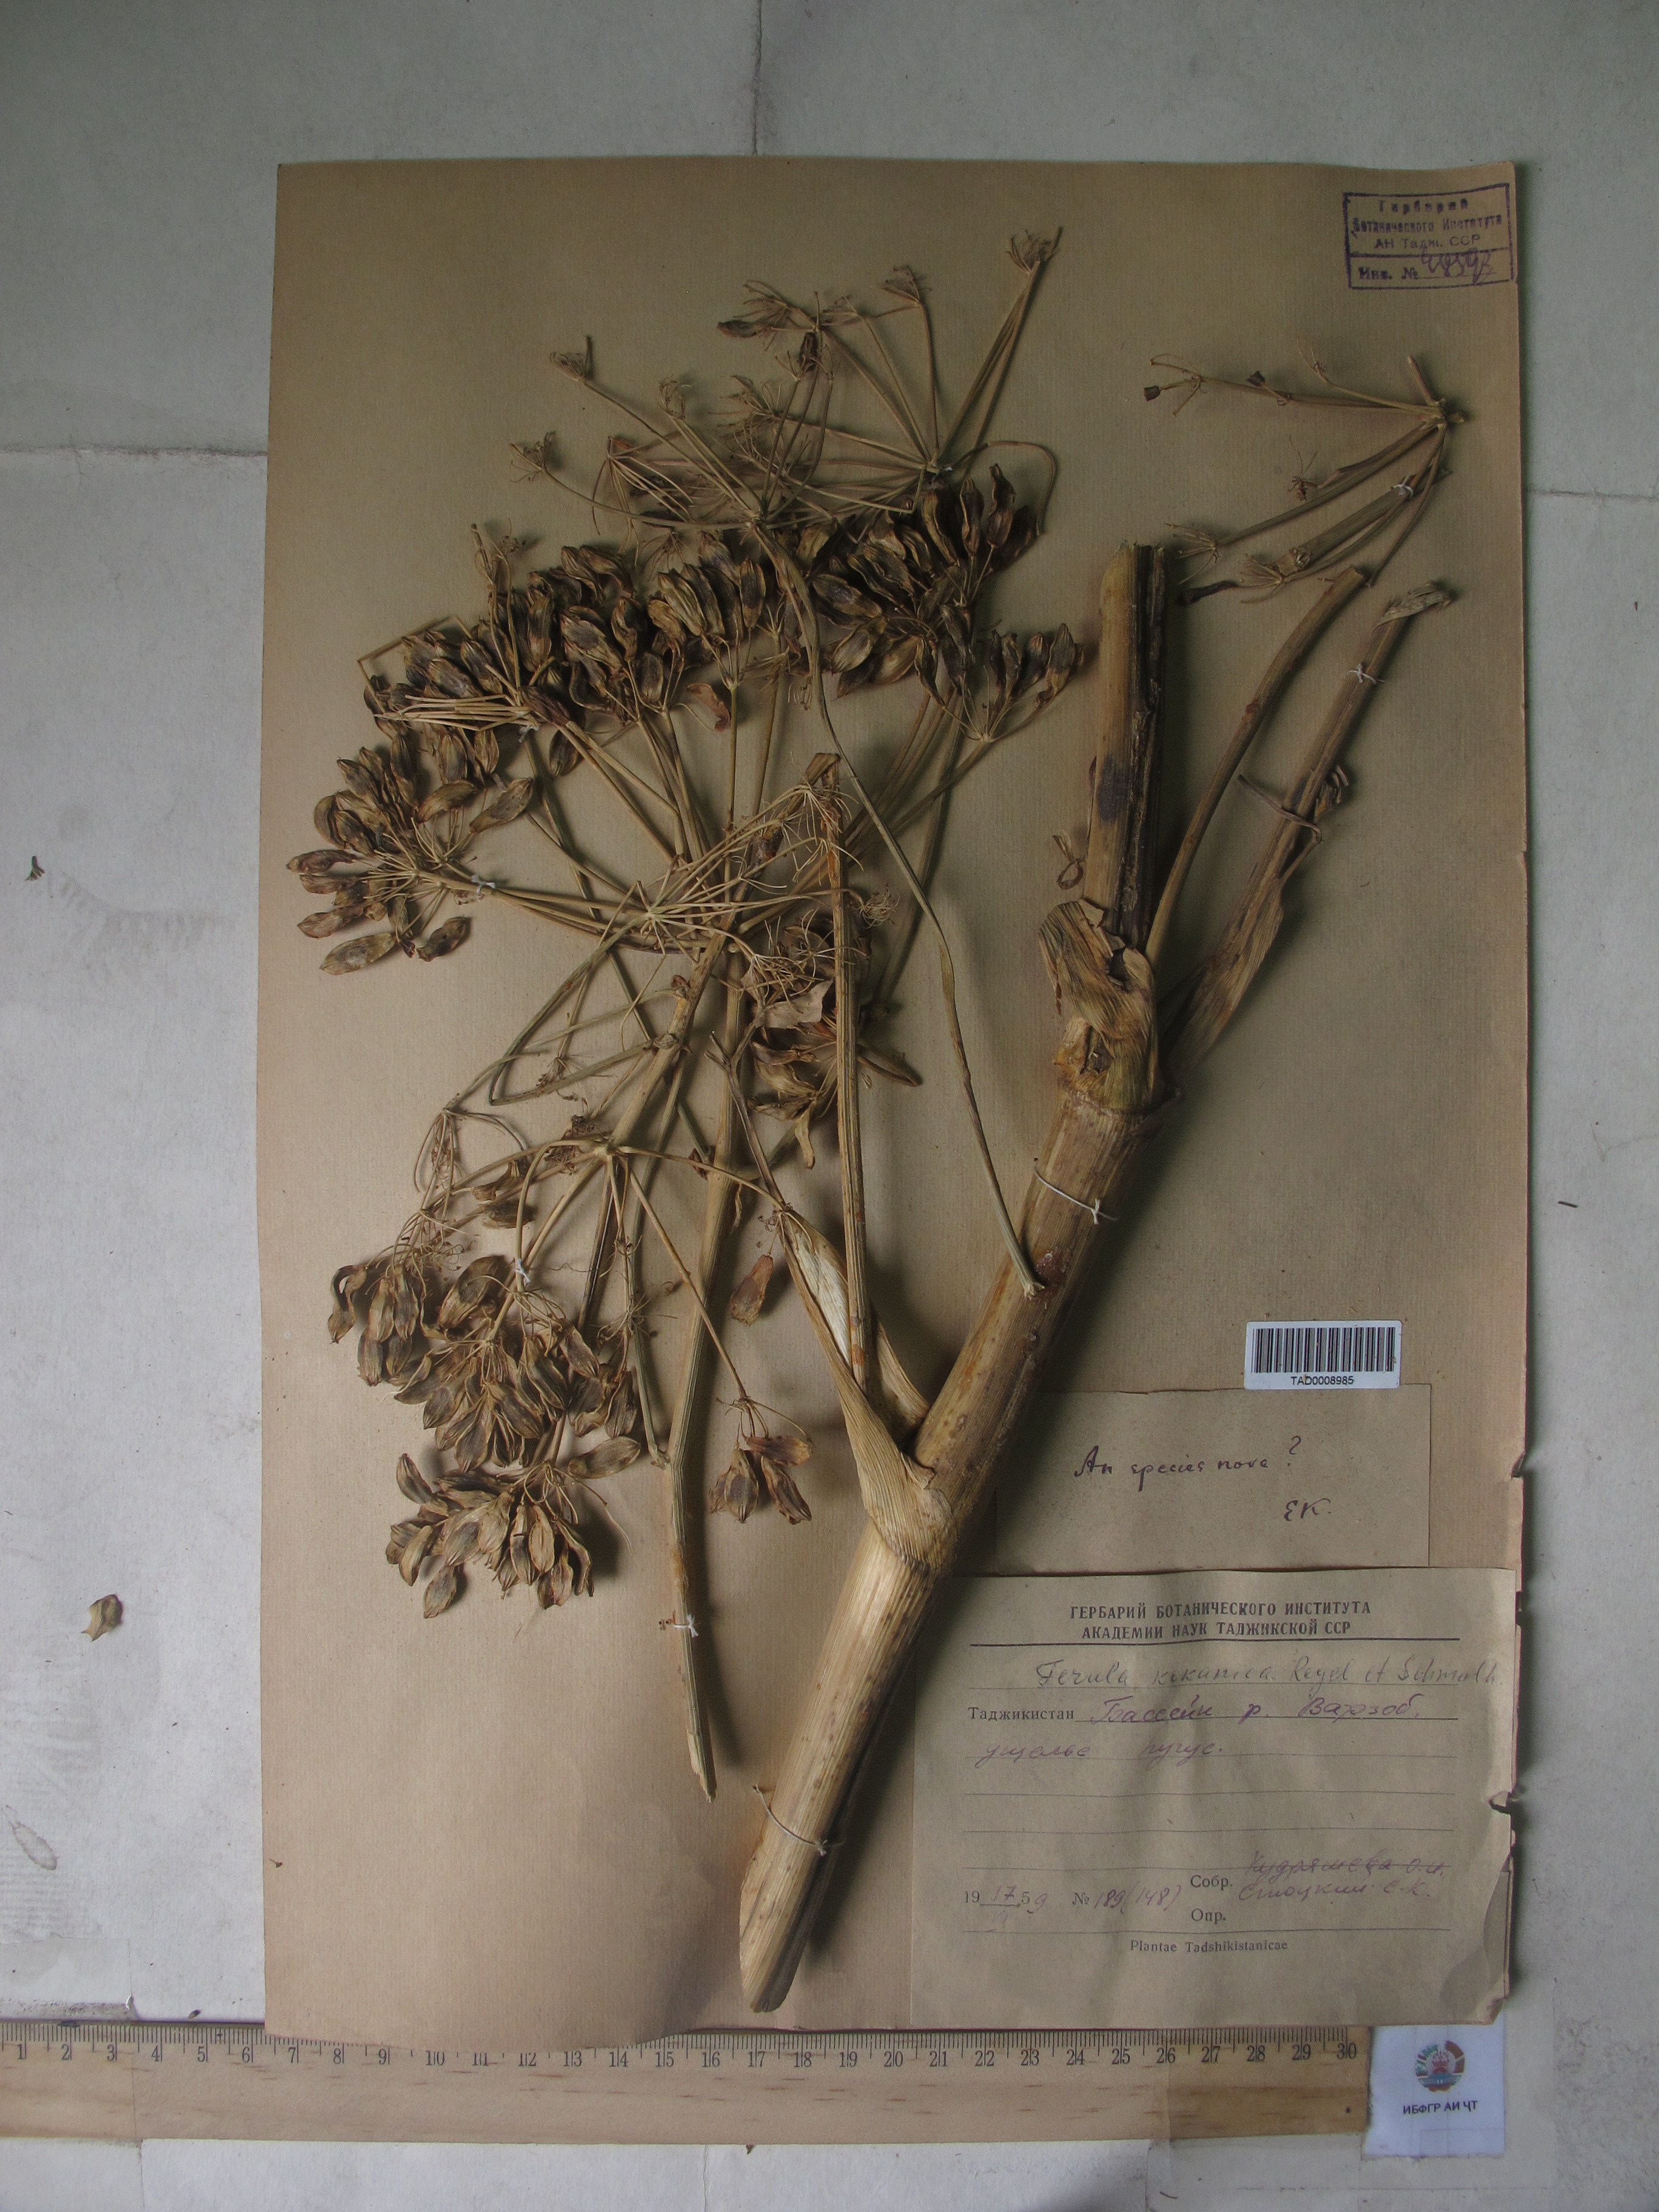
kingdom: Plantae
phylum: Tracheophyta
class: Magnoliopsida
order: Apiales
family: Apiaceae
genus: Ferula
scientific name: Ferula kokanica
